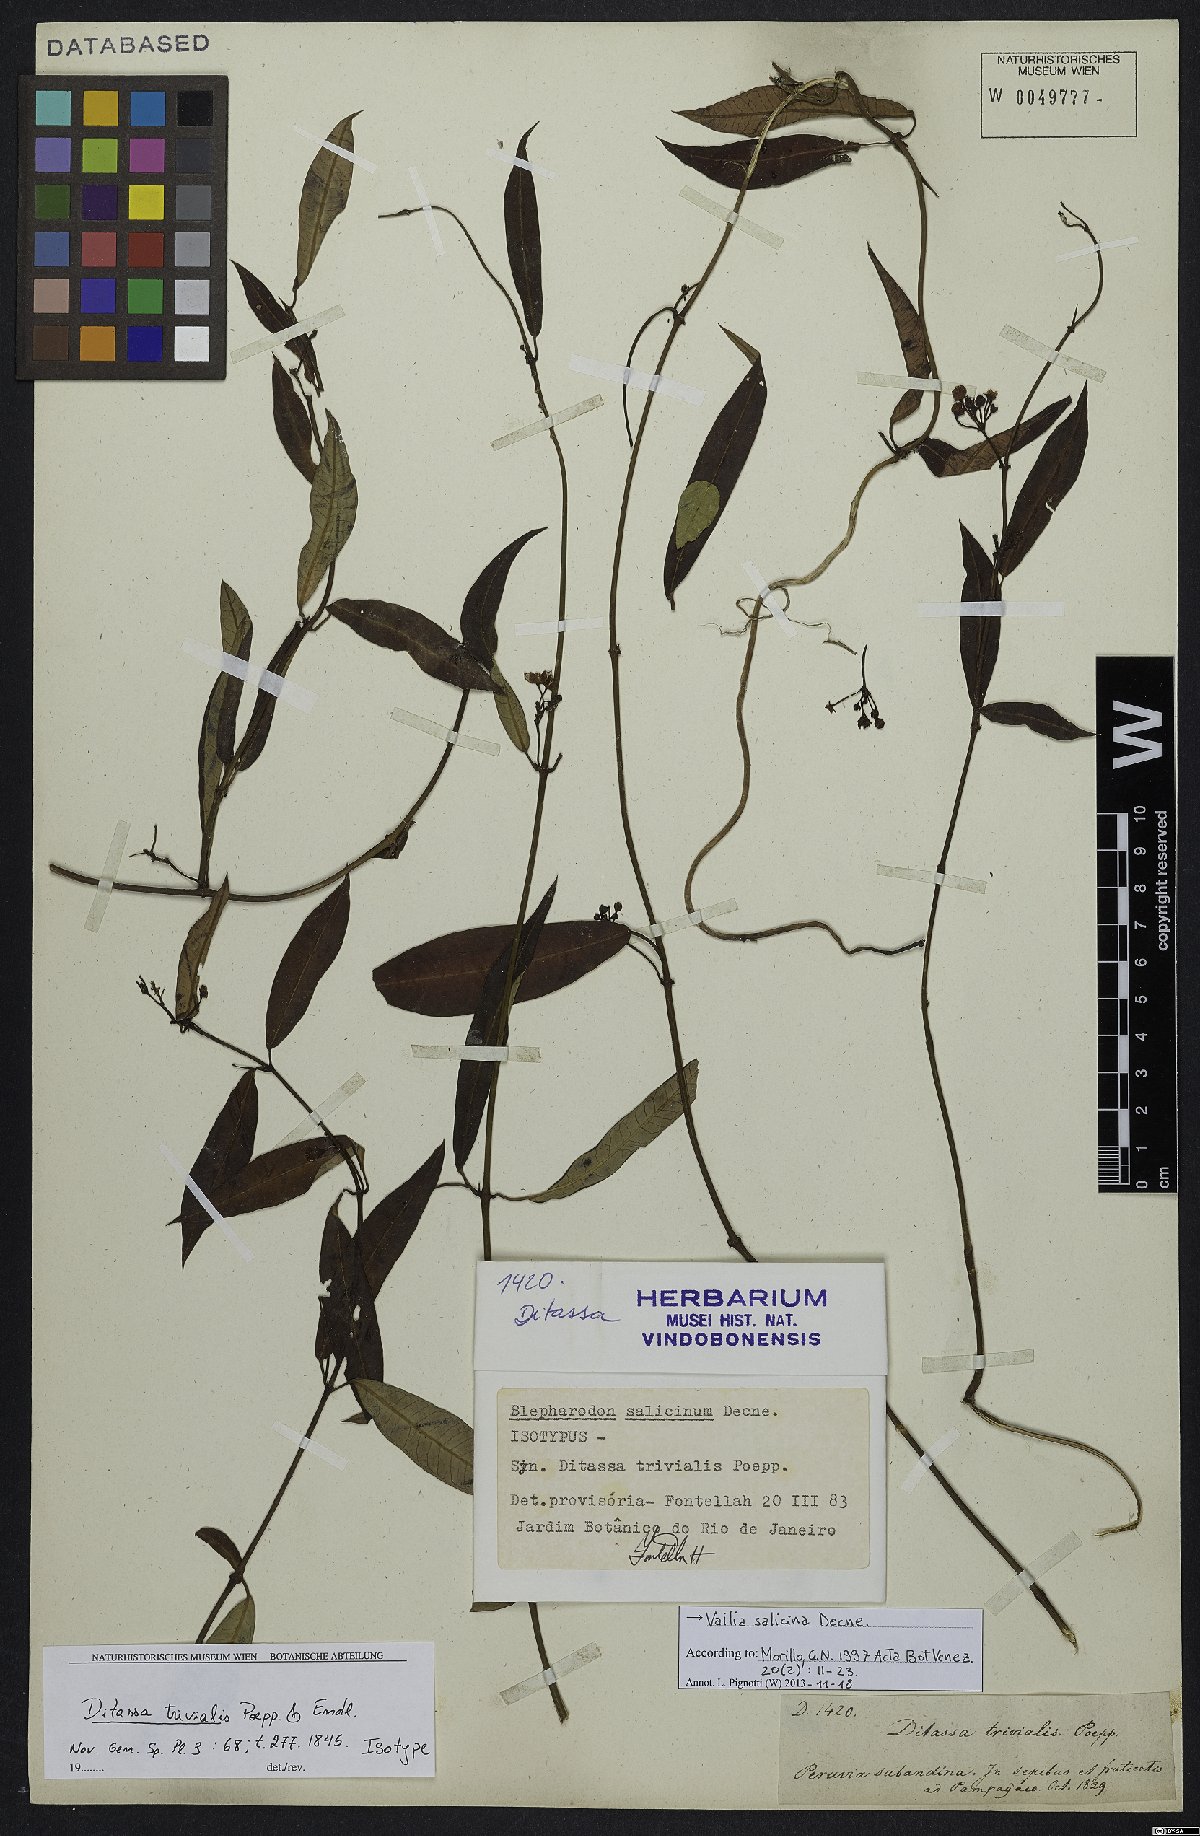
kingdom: Plantae
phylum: Tracheophyta
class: Magnoliopsida
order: Gentianales
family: Apocynaceae
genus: Vailia
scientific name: Vailia salicina
